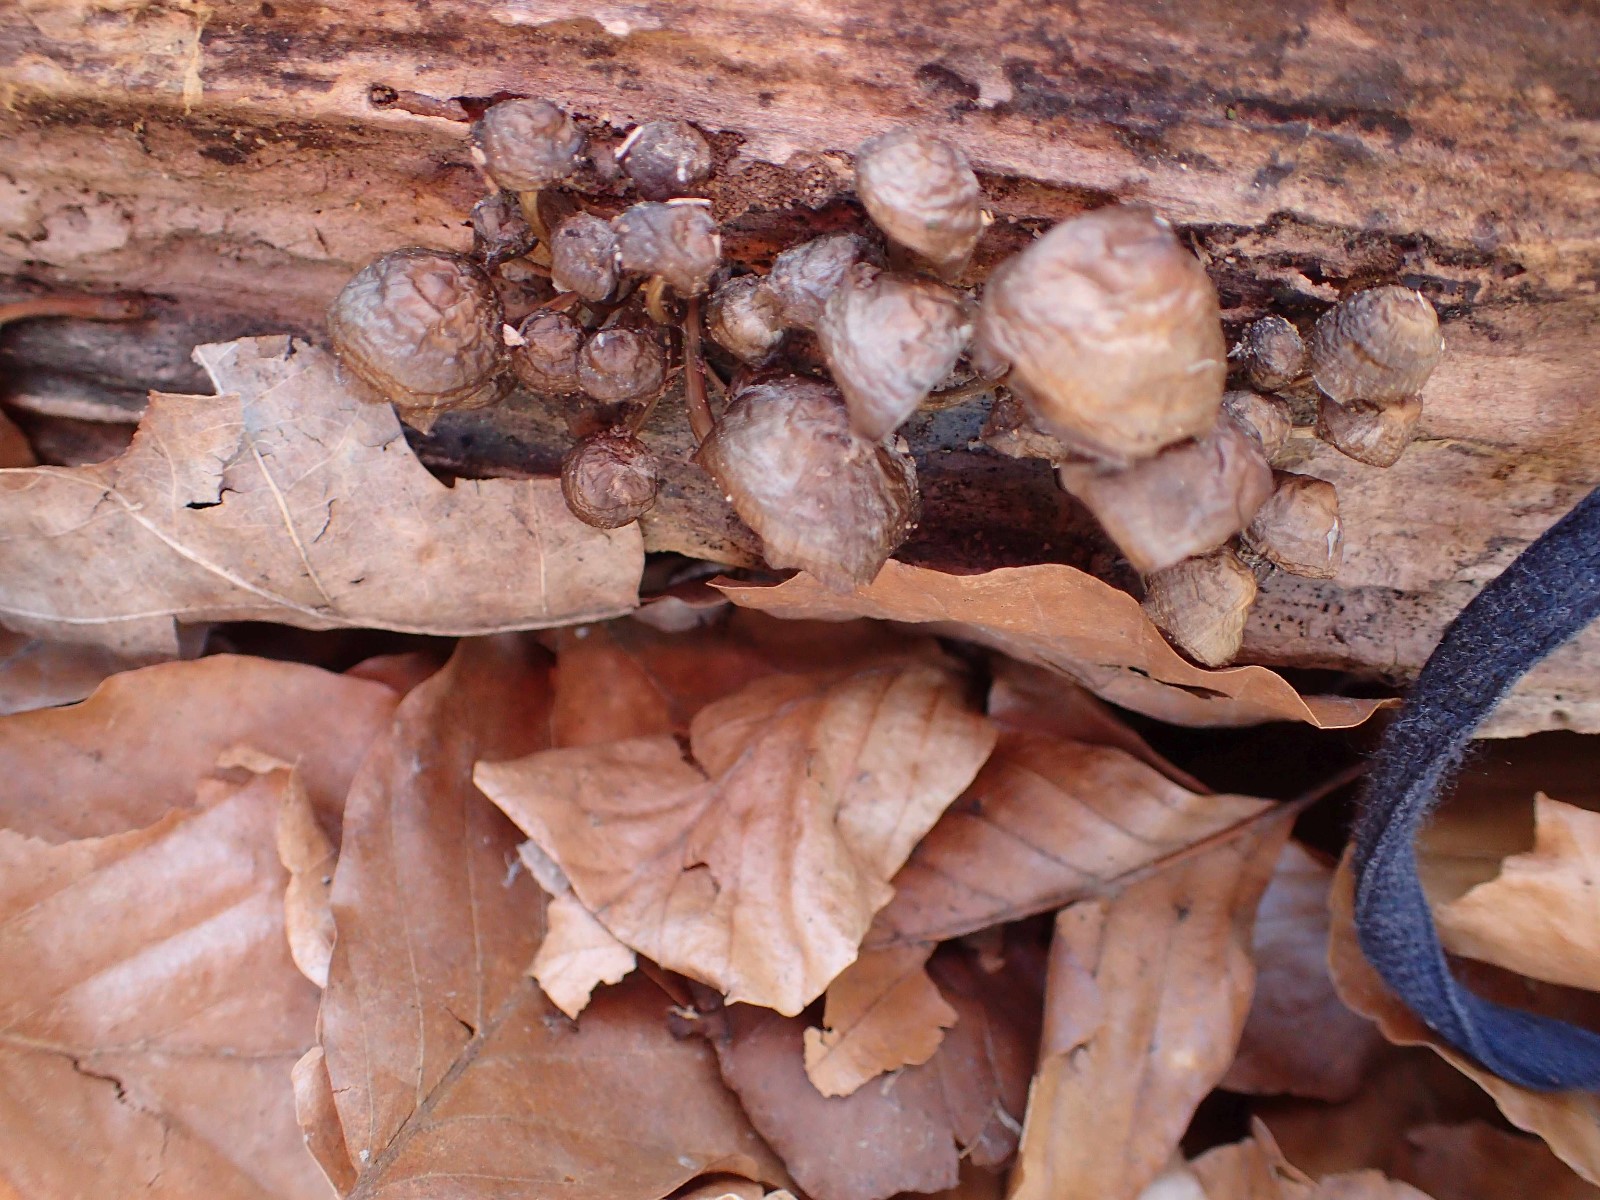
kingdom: Fungi
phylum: Basidiomycota
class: Agaricomycetes
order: Agaricales
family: Mycenaceae
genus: Mycena
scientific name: Mycena tintinnabulum
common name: vinter-huesvamp
